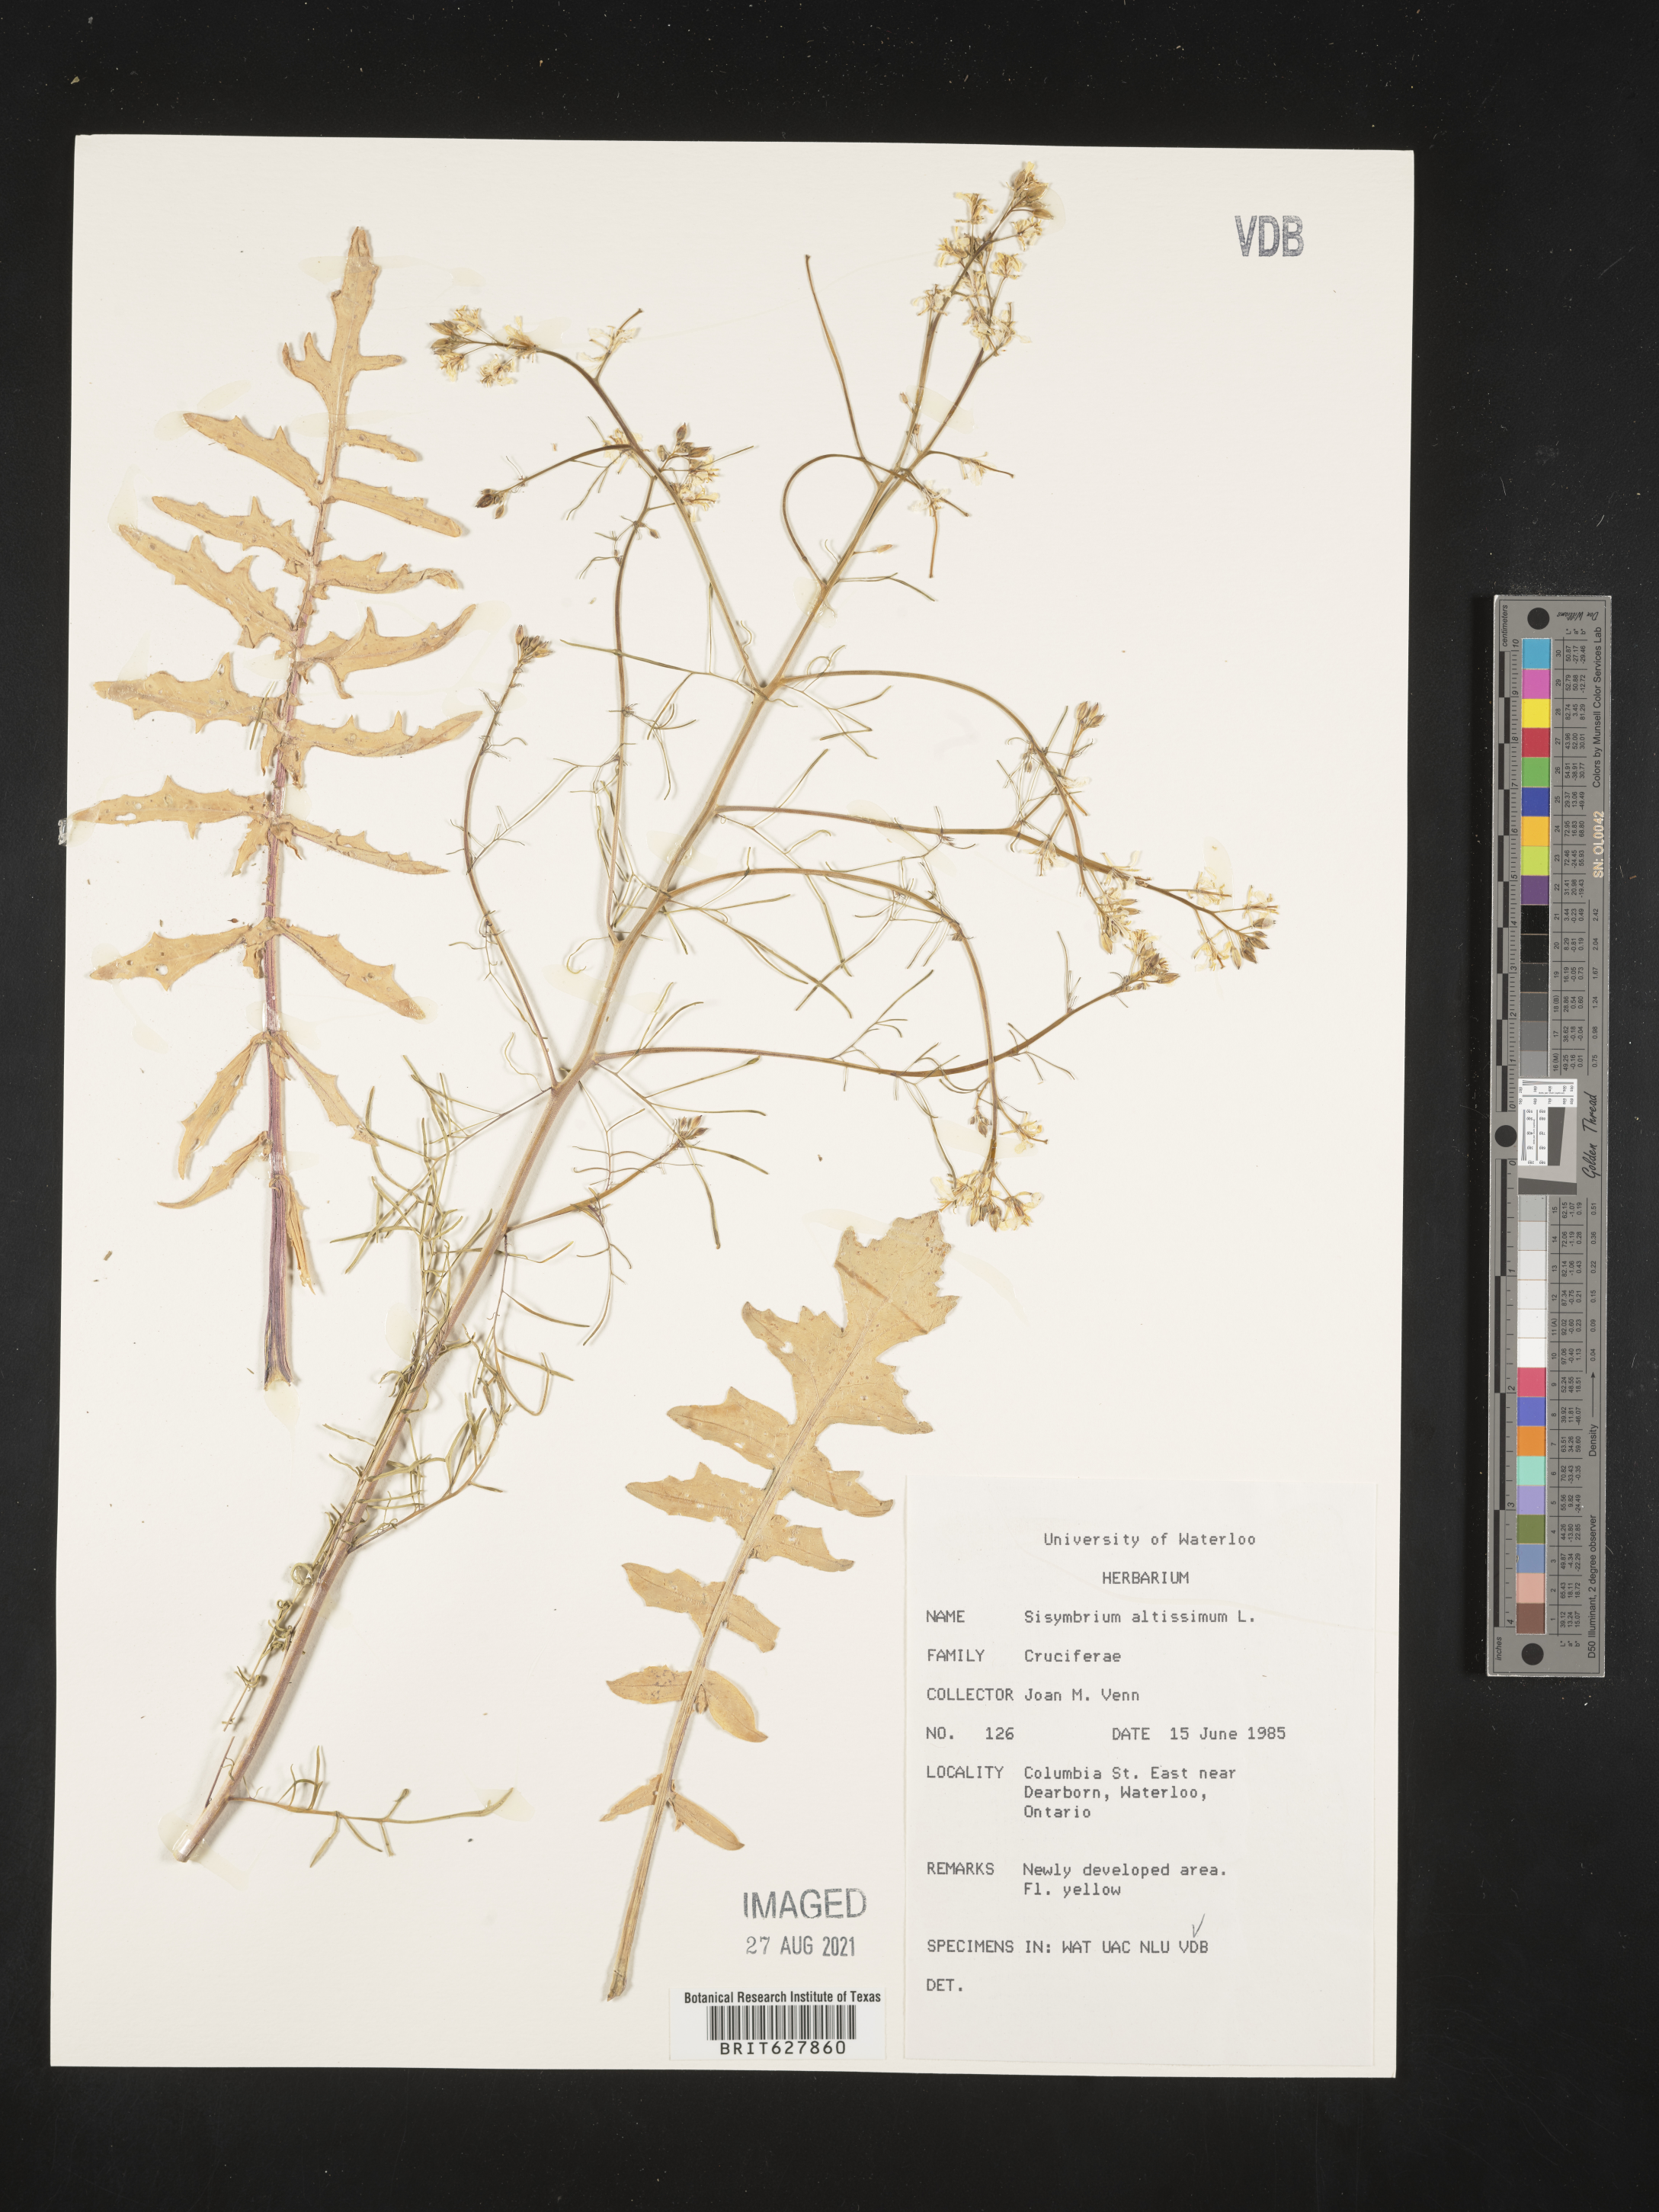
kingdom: Plantae
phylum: Tracheophyta
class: Magnoliopsida
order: Brassicales
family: Brassicaceae
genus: Sisymbrium
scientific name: Sisymbrium altissimum
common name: Tall rocket
